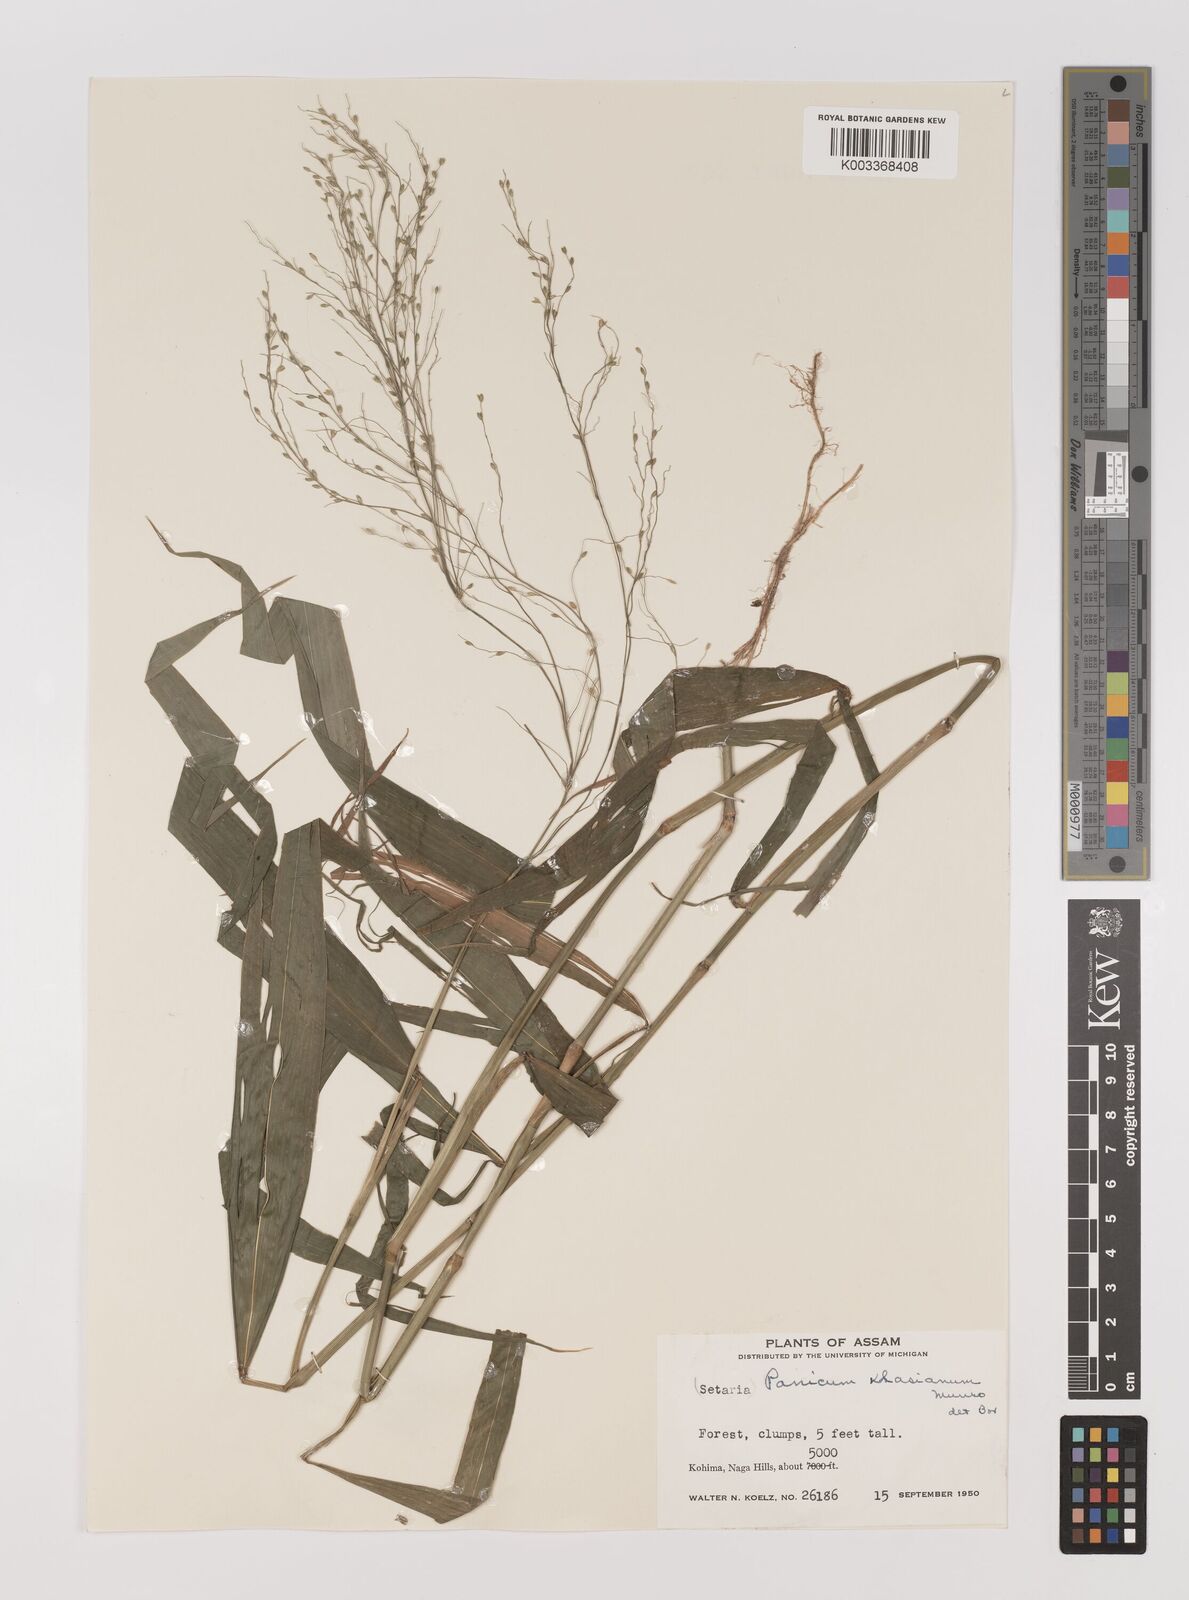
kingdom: Plantae
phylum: Tracheophyta
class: Liliopsida
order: Poales
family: Poaceae
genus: Panicum
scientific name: Panicum khasianum
